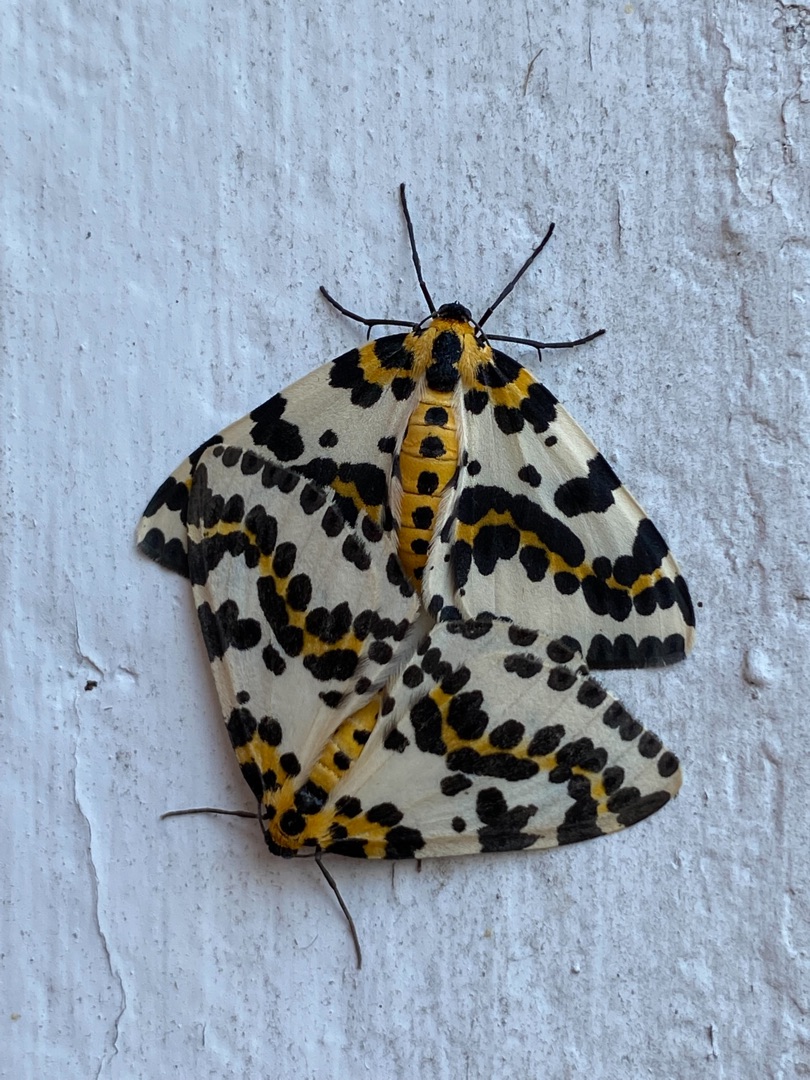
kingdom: Animalia
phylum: Arthropoda
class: Insecta
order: Lepidoptera
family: Geometridae
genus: Abraxas
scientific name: Abraxas grossulariata
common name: Harlekin
